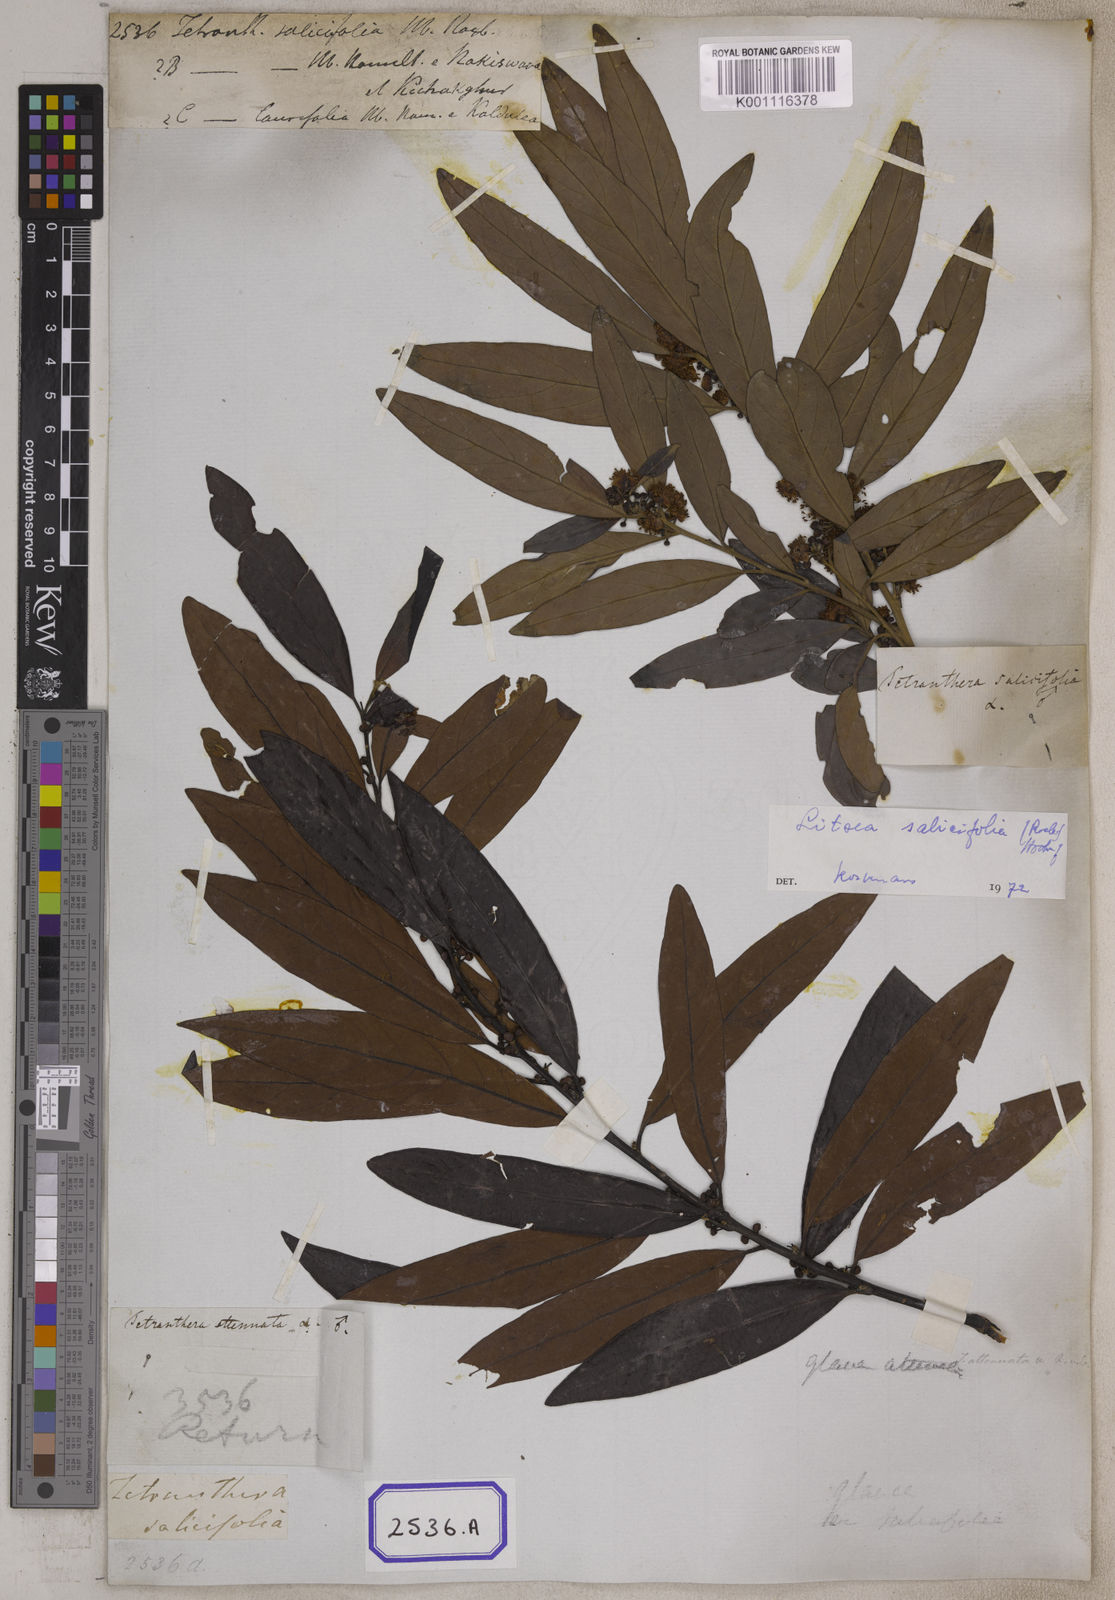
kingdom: Plantae
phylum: Tracheophyta
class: Magnoliopsida
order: Laurales
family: Lauraceae
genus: Litsea
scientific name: Litsea
